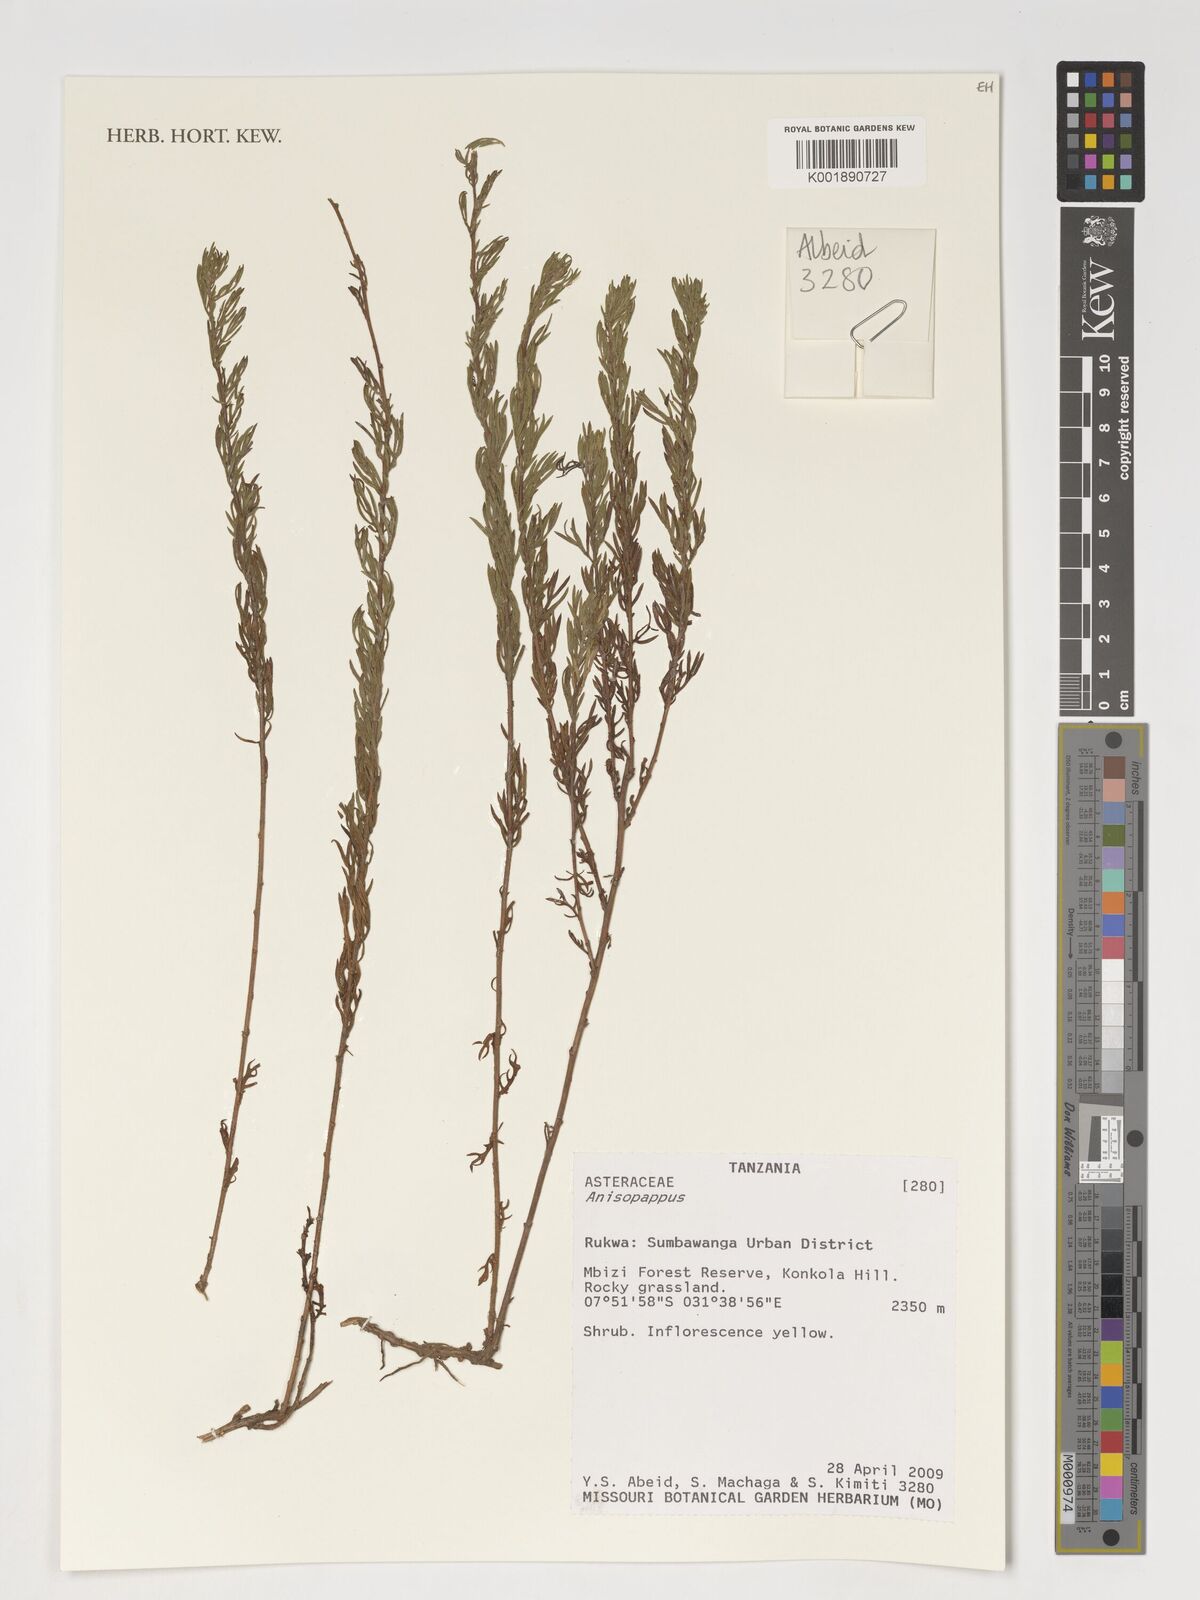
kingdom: Plantae
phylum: Tracheophyta
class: Magnoliopsida
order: Asterales
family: Asteraceae
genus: Anisopappus
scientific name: Anisopappus
